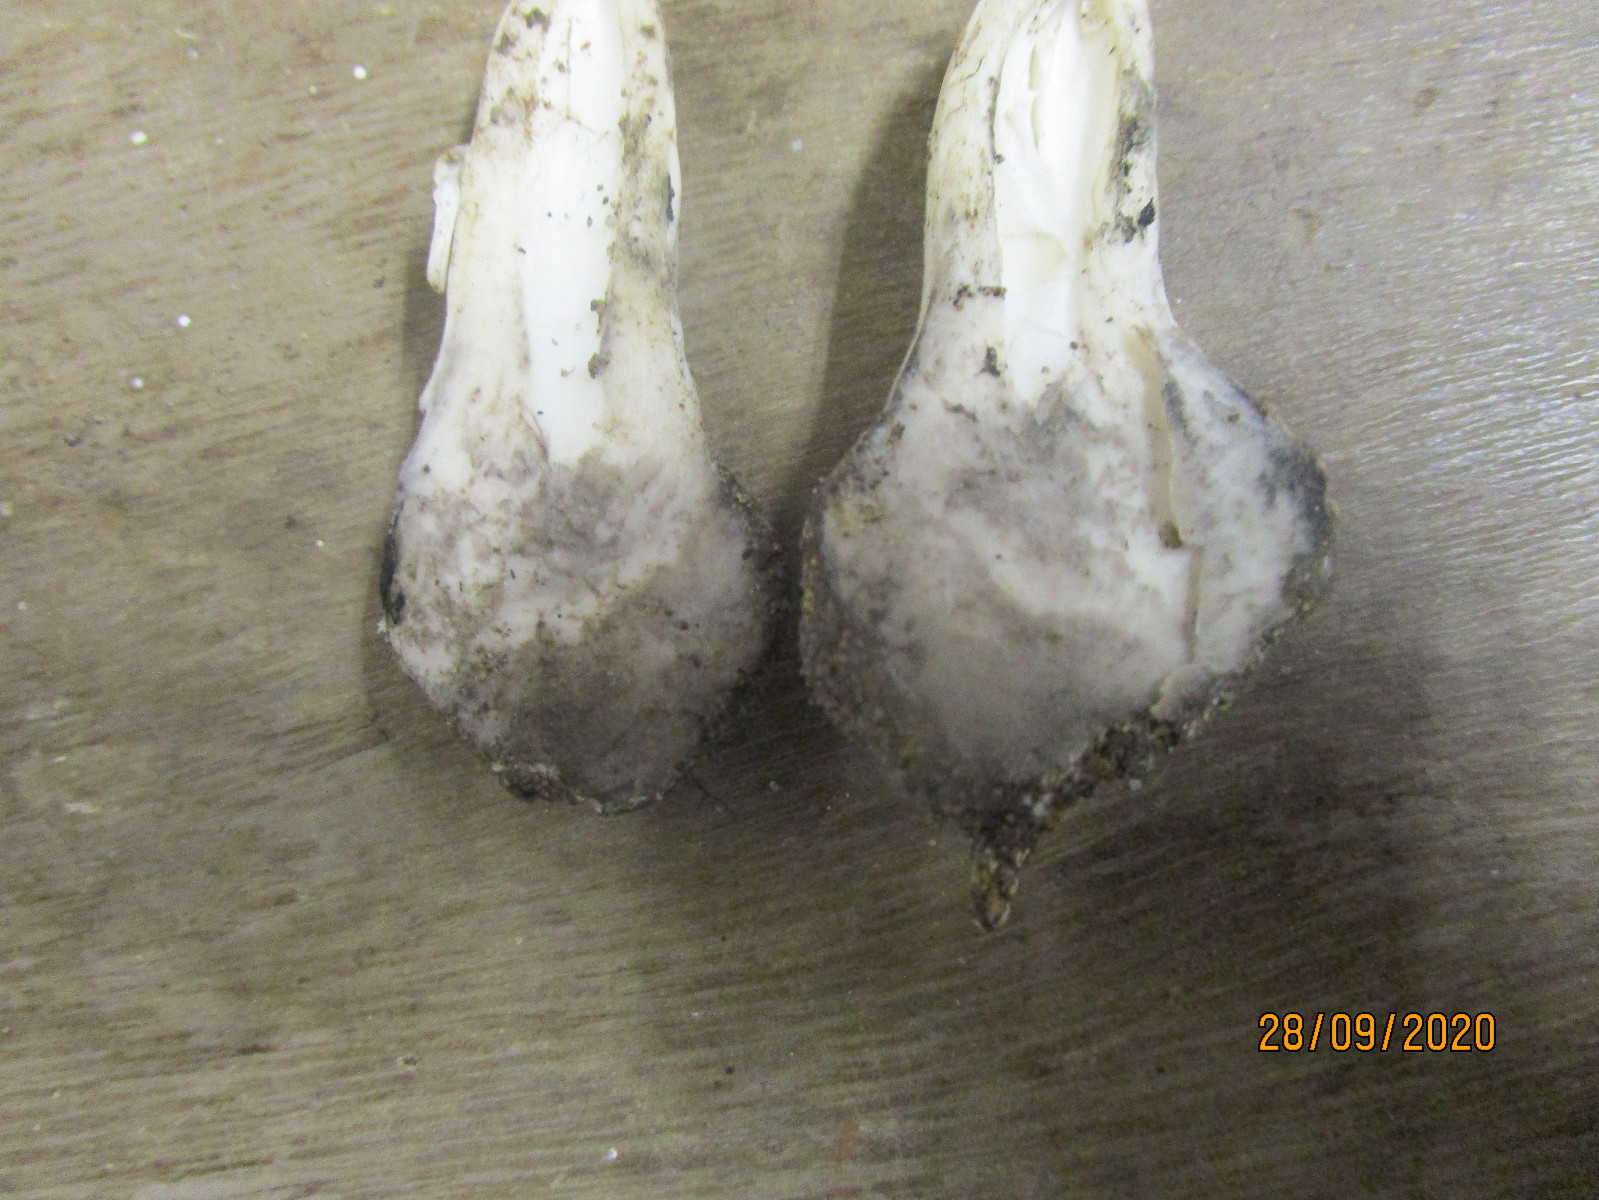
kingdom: Fungi
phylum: Basidiomycota
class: Agaricomycetes
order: Agaricales
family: Agaricaceae
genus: Coprinus
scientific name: Coprinus comatus
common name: stor parykhat
